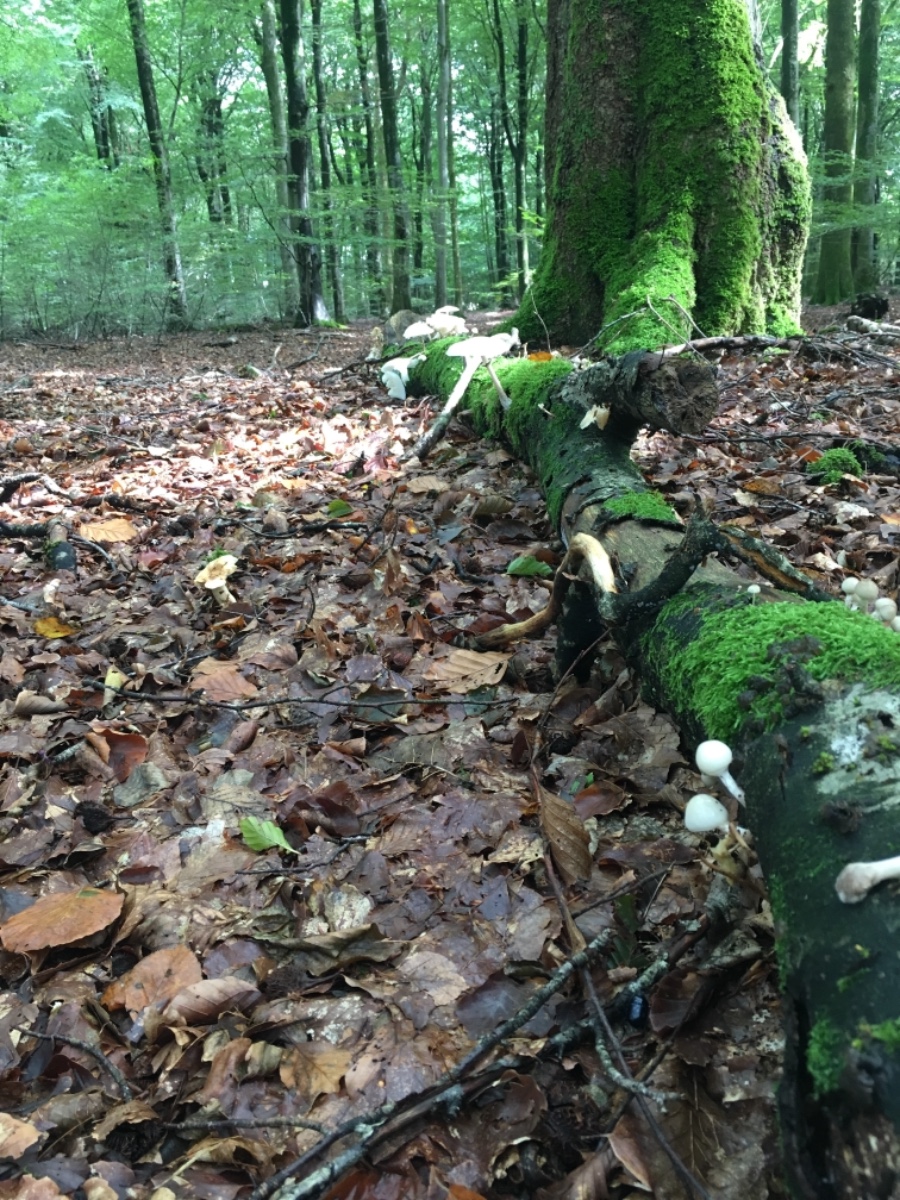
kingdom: Fungi
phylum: Basidiomycota
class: Agaricomycetes
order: Agaricales
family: Physalacriaceae
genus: Mucidula
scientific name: Mucidula mucida
